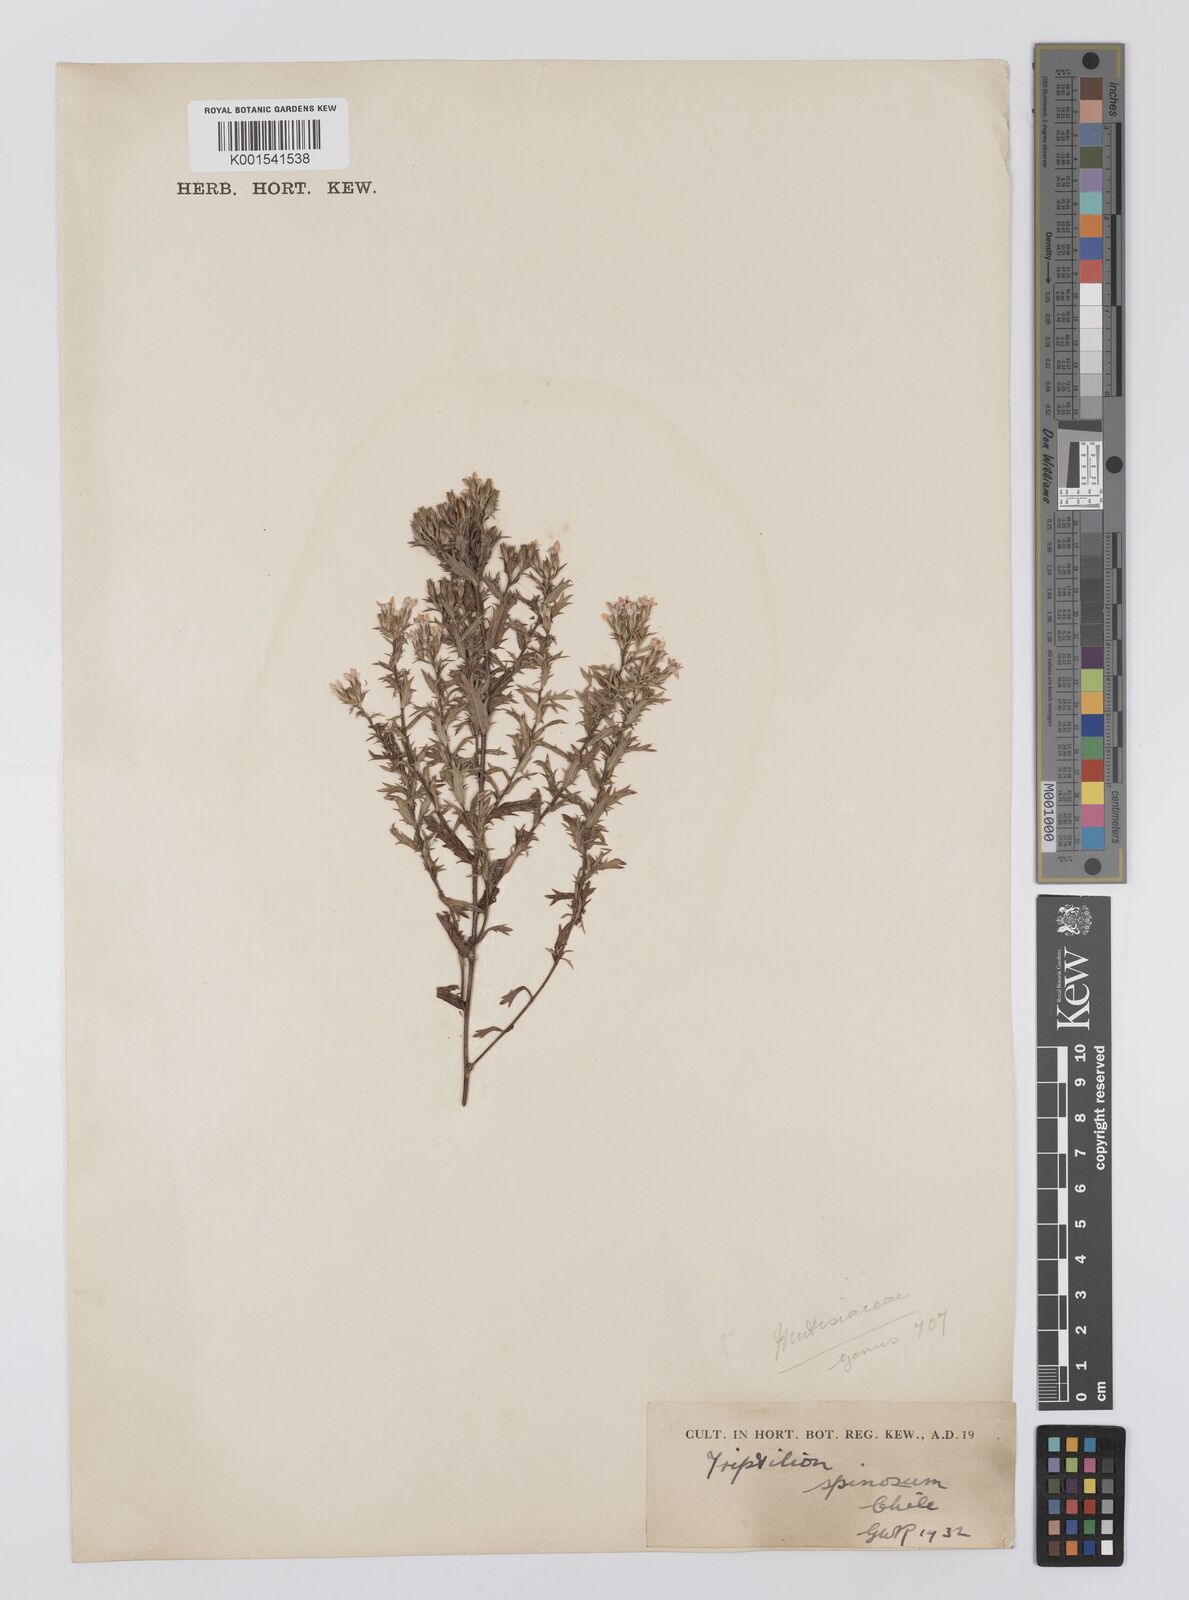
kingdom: Plantae
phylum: Tracheophyta
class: Magnoliopsida
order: Asterales
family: Asteraceae
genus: Triptilion
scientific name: Triptilion spinosum
